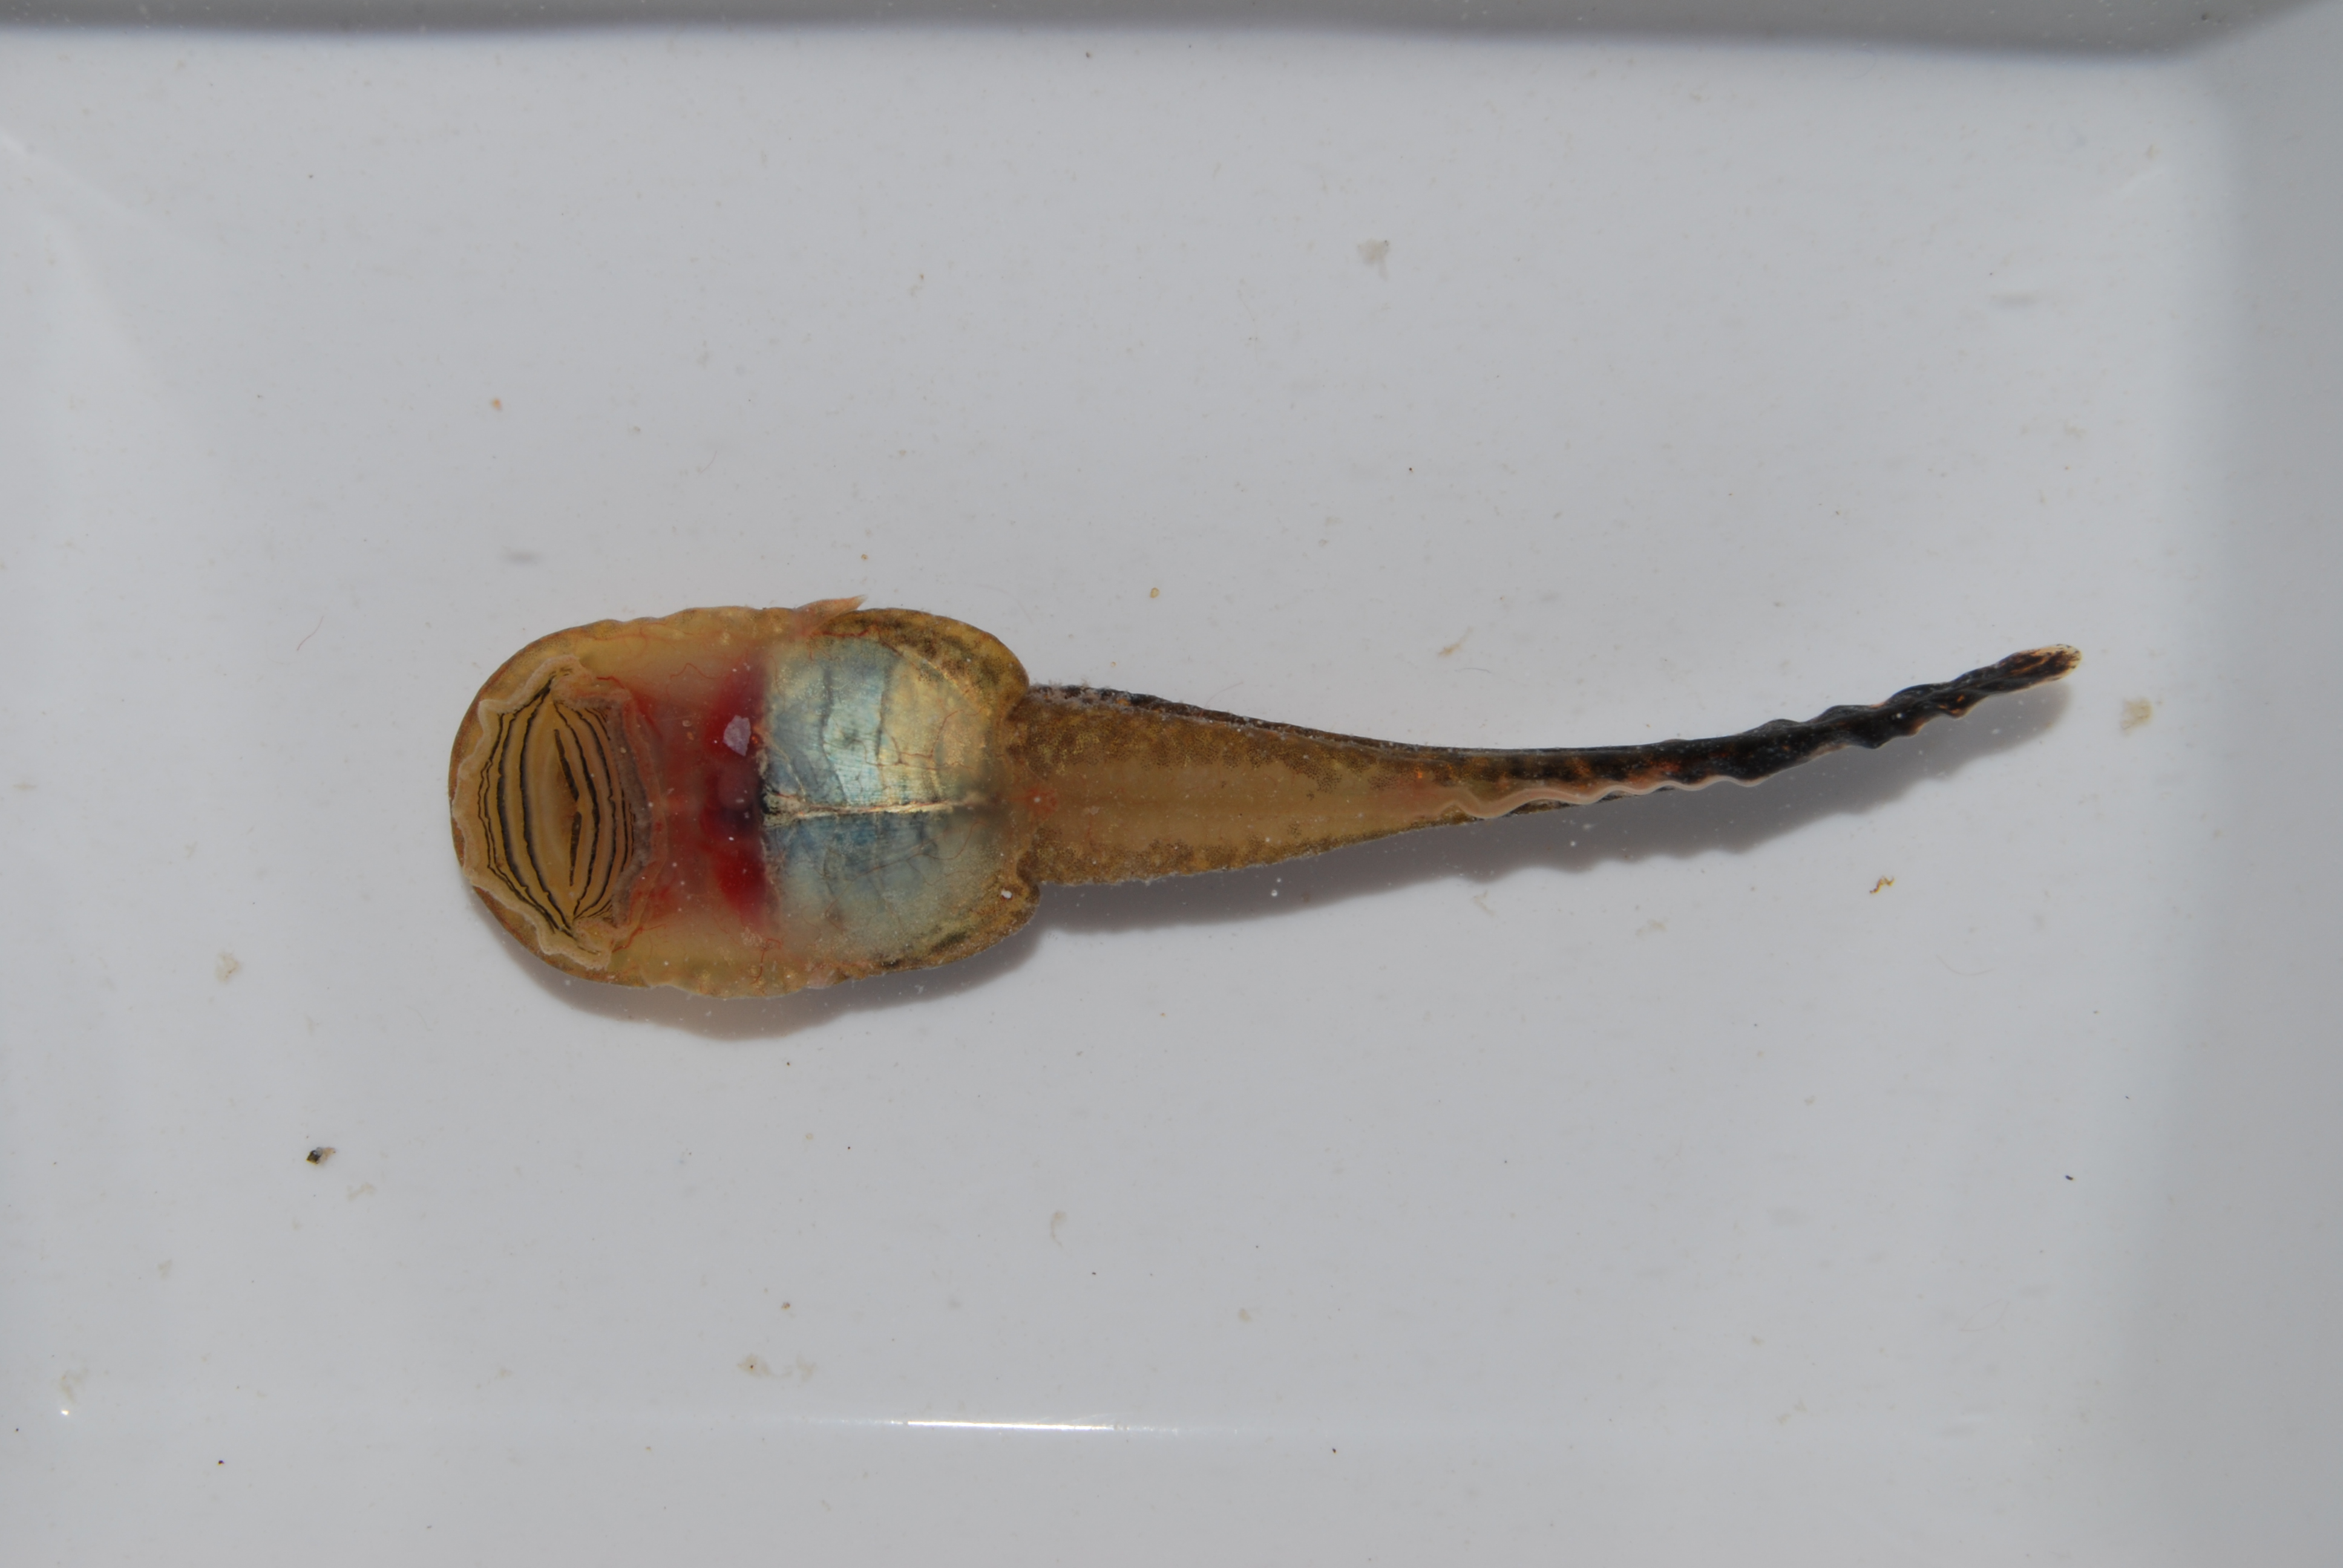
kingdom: Animalia
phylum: Chordata
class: Amphibia
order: Anura
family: Heleophrynidae
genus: Heleophryne
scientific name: Heleophryne depressa
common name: Cederberg ghost frog
